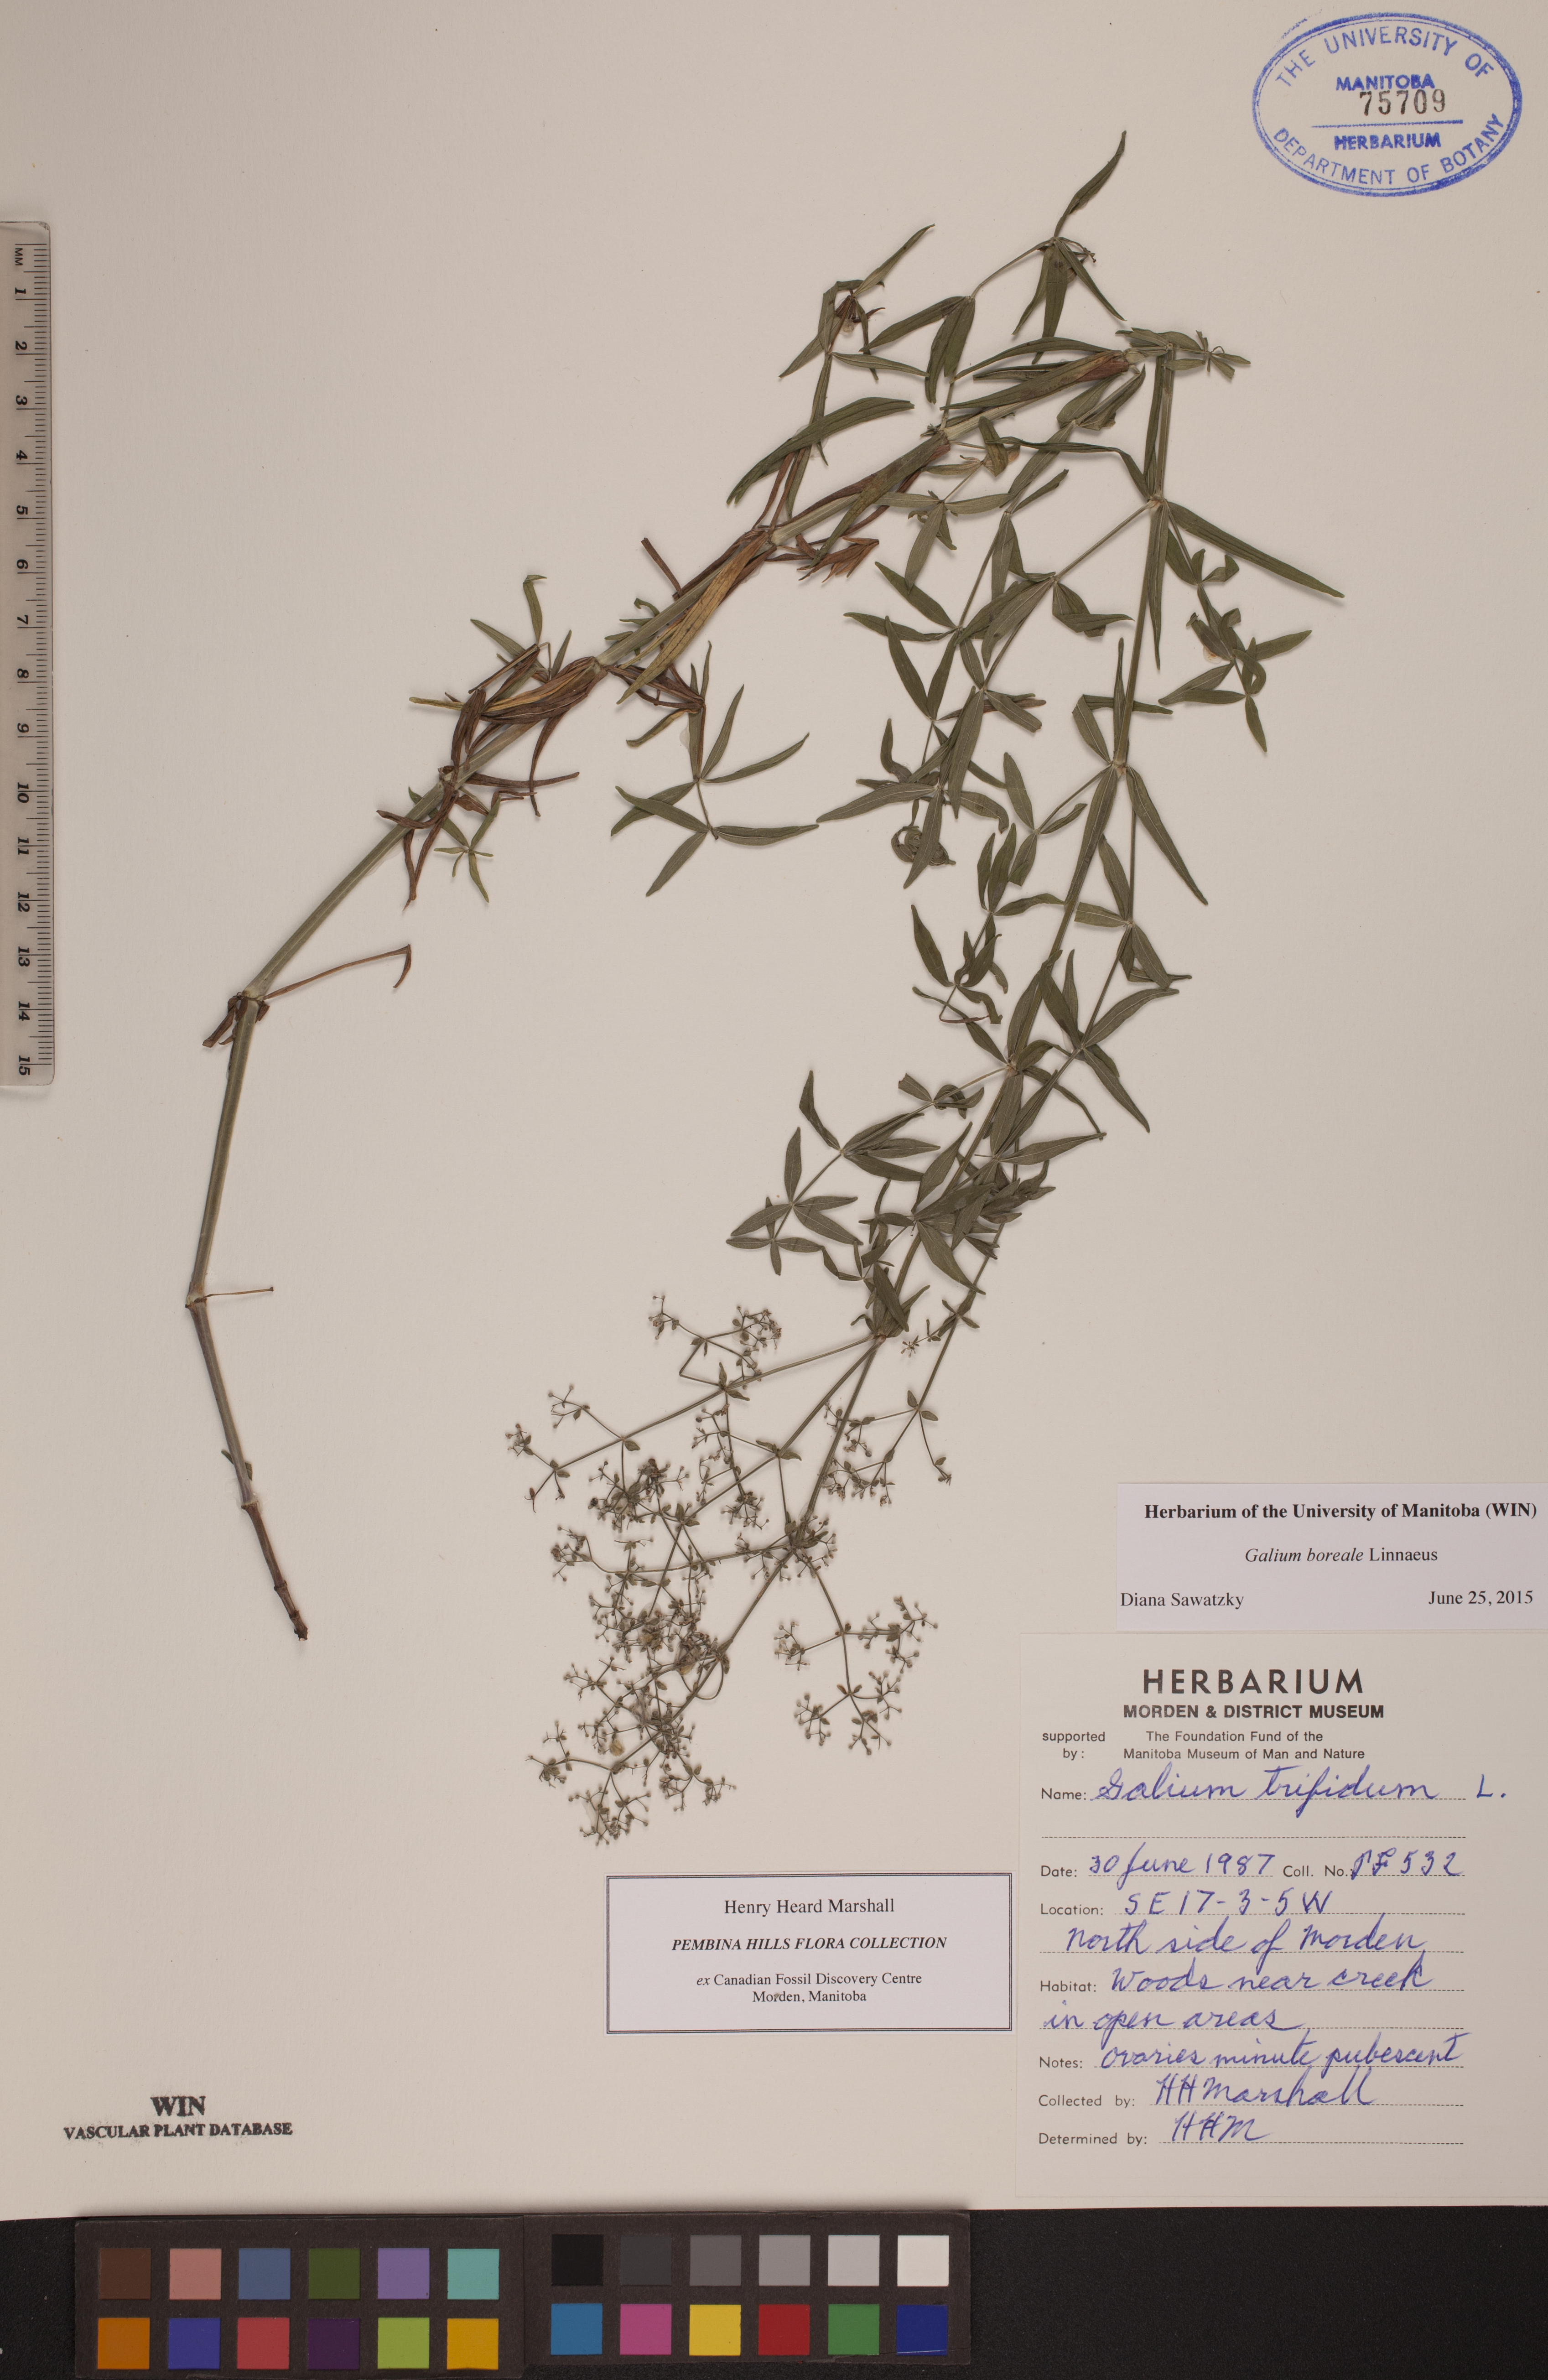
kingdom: Plantae
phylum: Tracheophyta
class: Magnoliopsida
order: Gentianales
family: Rubiaceae
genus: Galium
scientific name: Galium boreale
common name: Northern bedstraw
